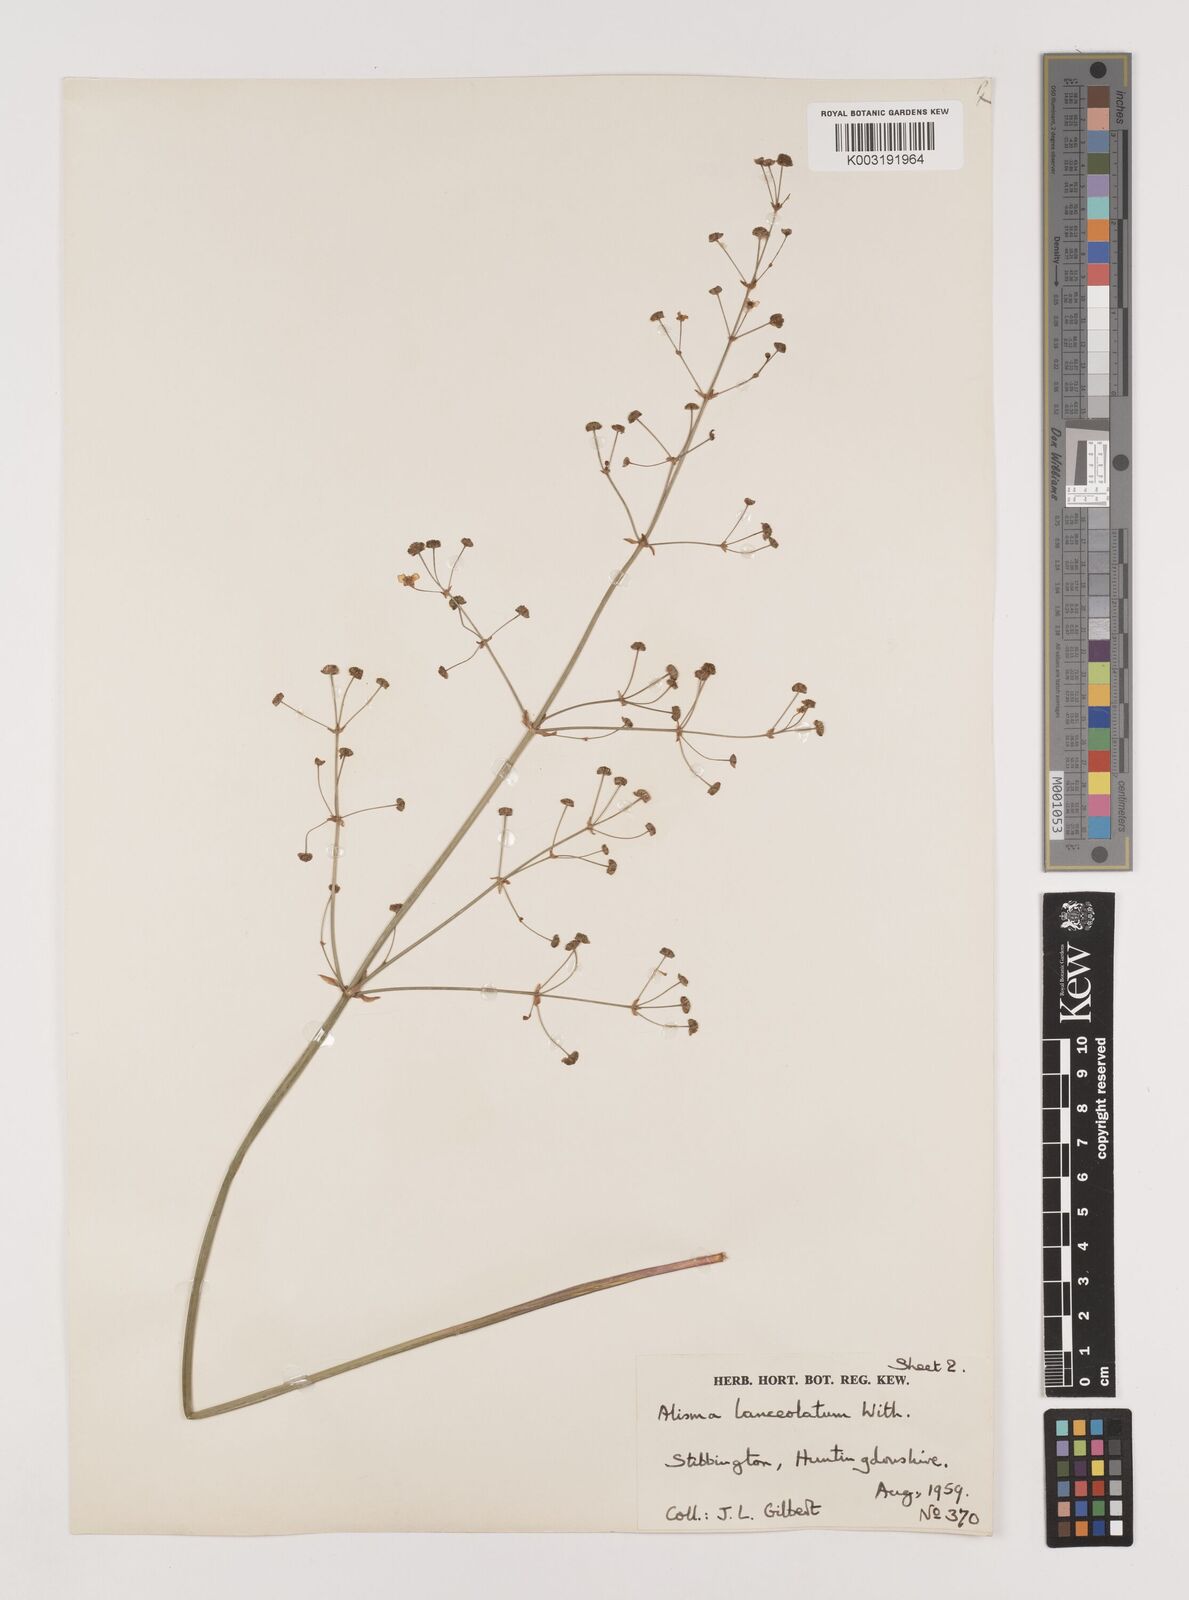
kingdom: Plantae
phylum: Tracheophyta
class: Liliopsida
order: Alismatales
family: Alismataceae
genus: Alisma
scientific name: Alisma lanceolatum
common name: Narrow-leaved water-plantain
